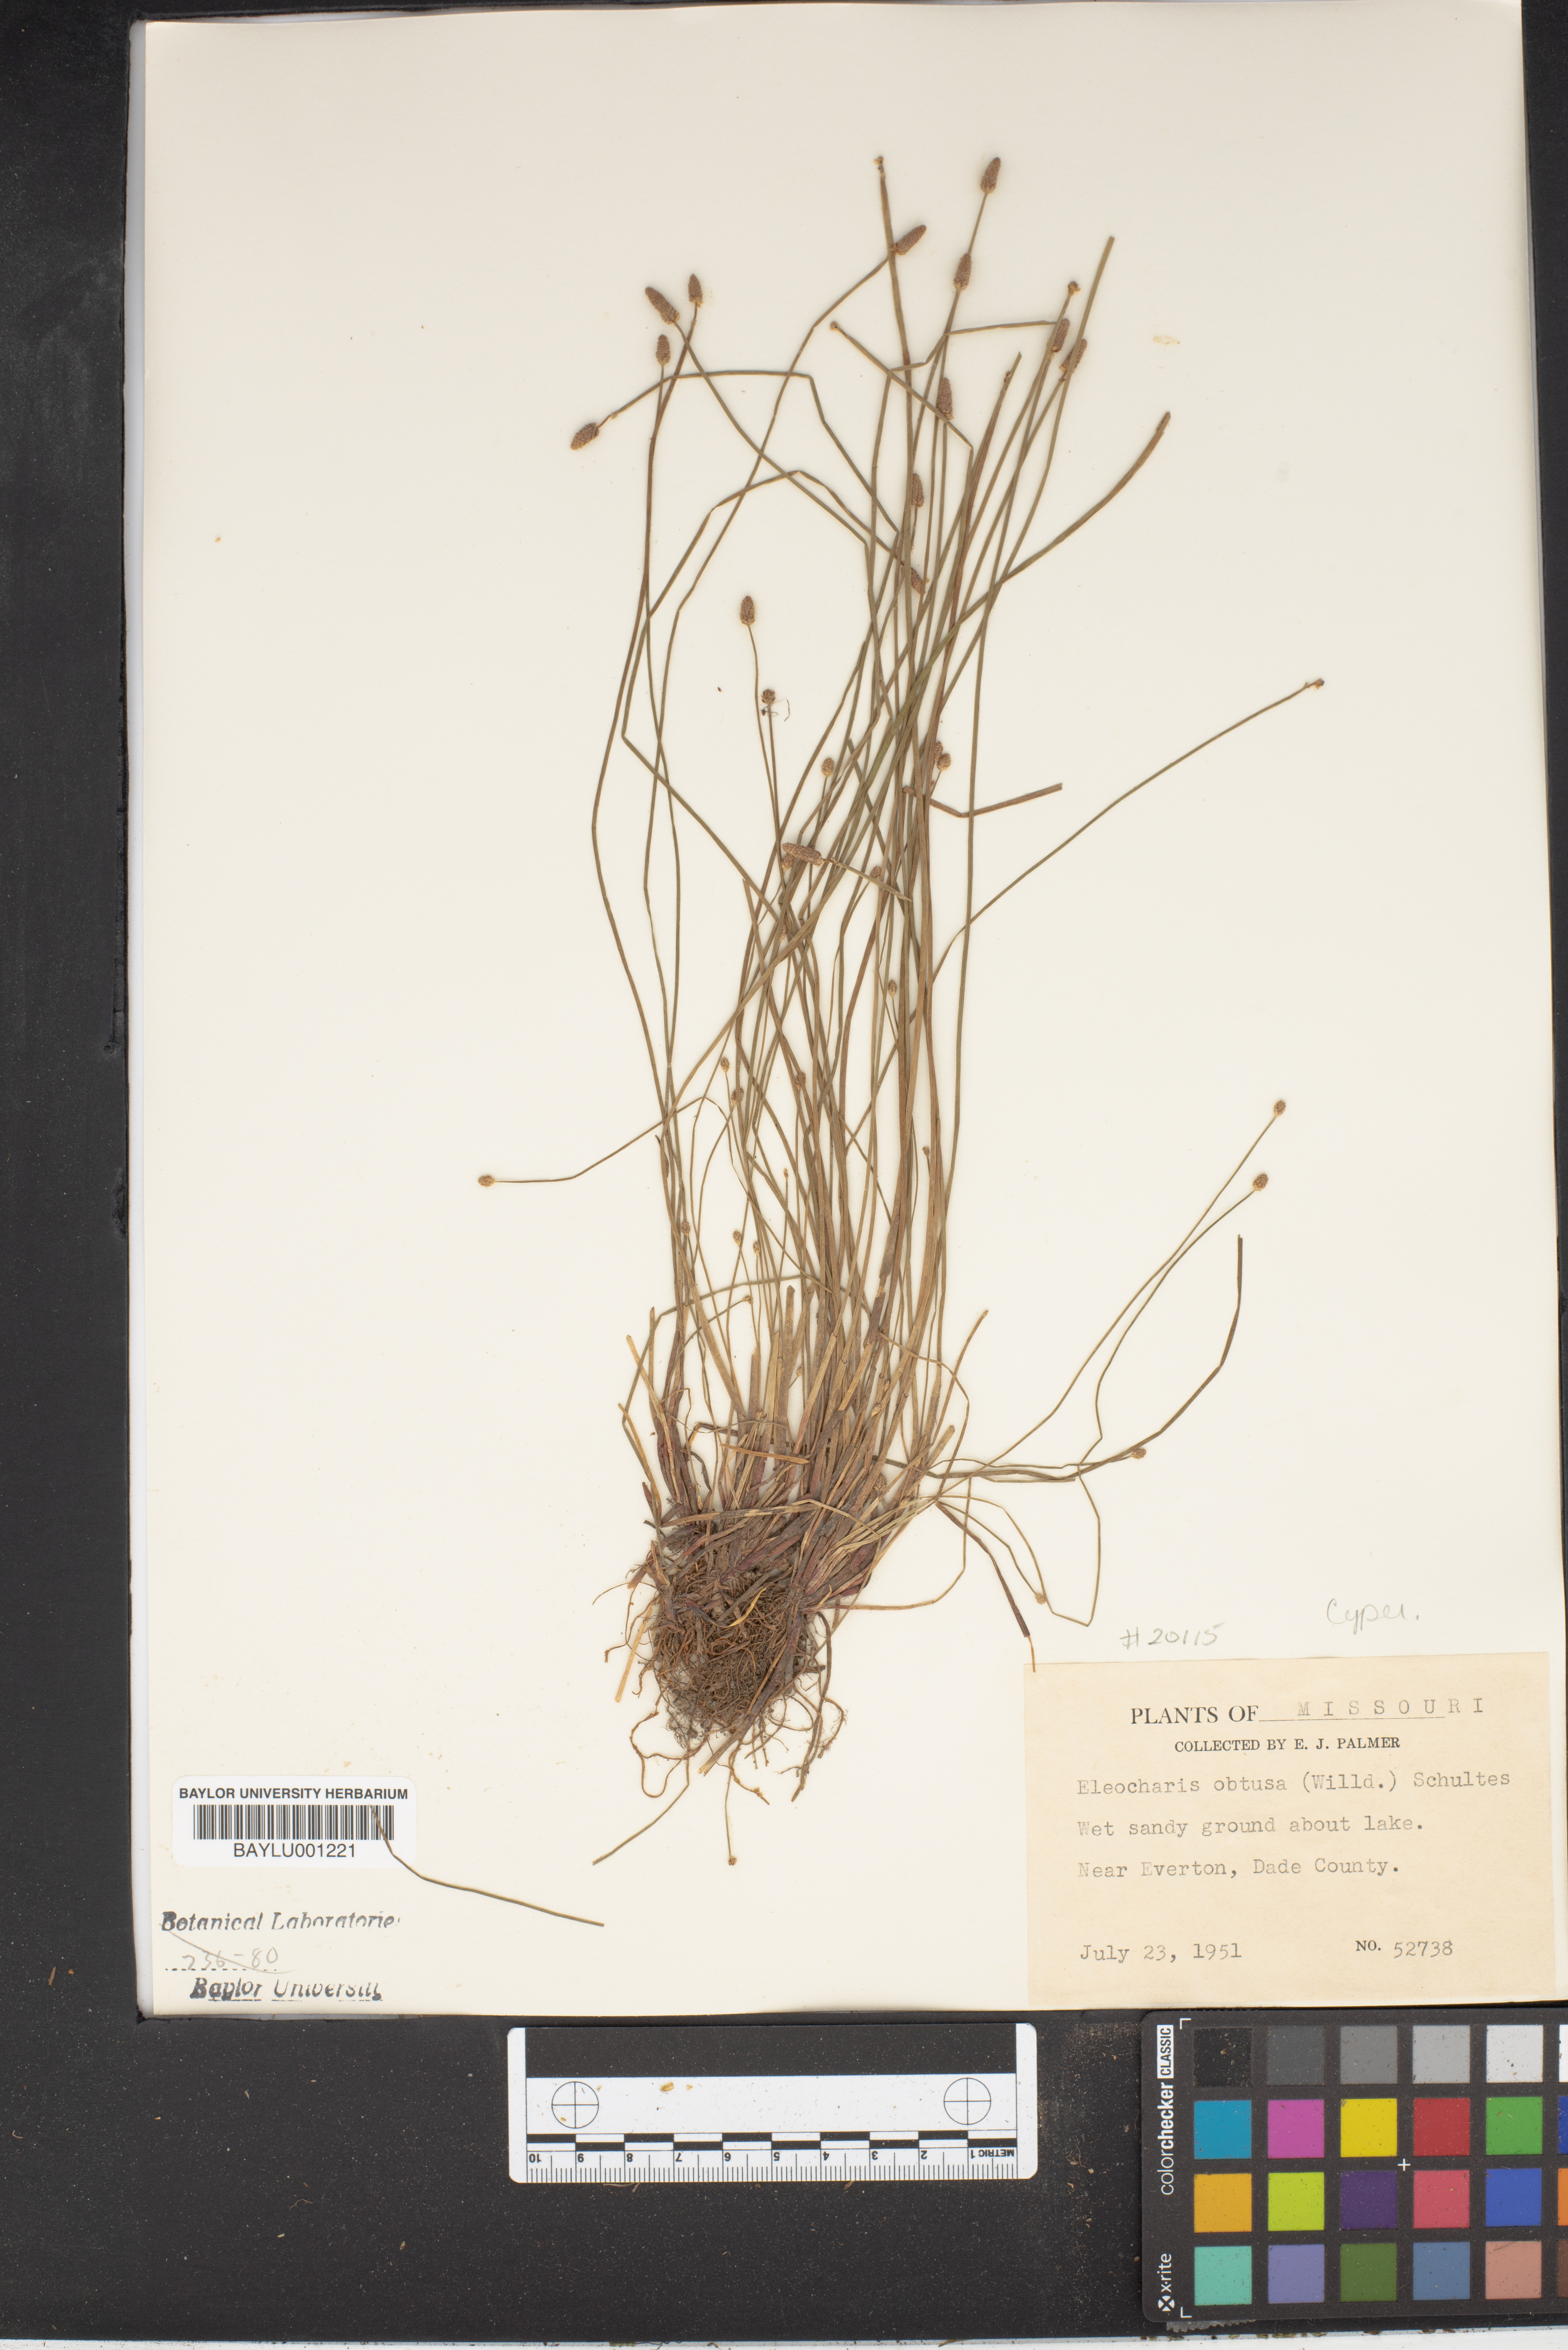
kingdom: Plantae
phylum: Tracheophyta
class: Liliopsida
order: Poales
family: Cyperaceae
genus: Eleocharis
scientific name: Eleocharis obtusa
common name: Blunt spikerush
